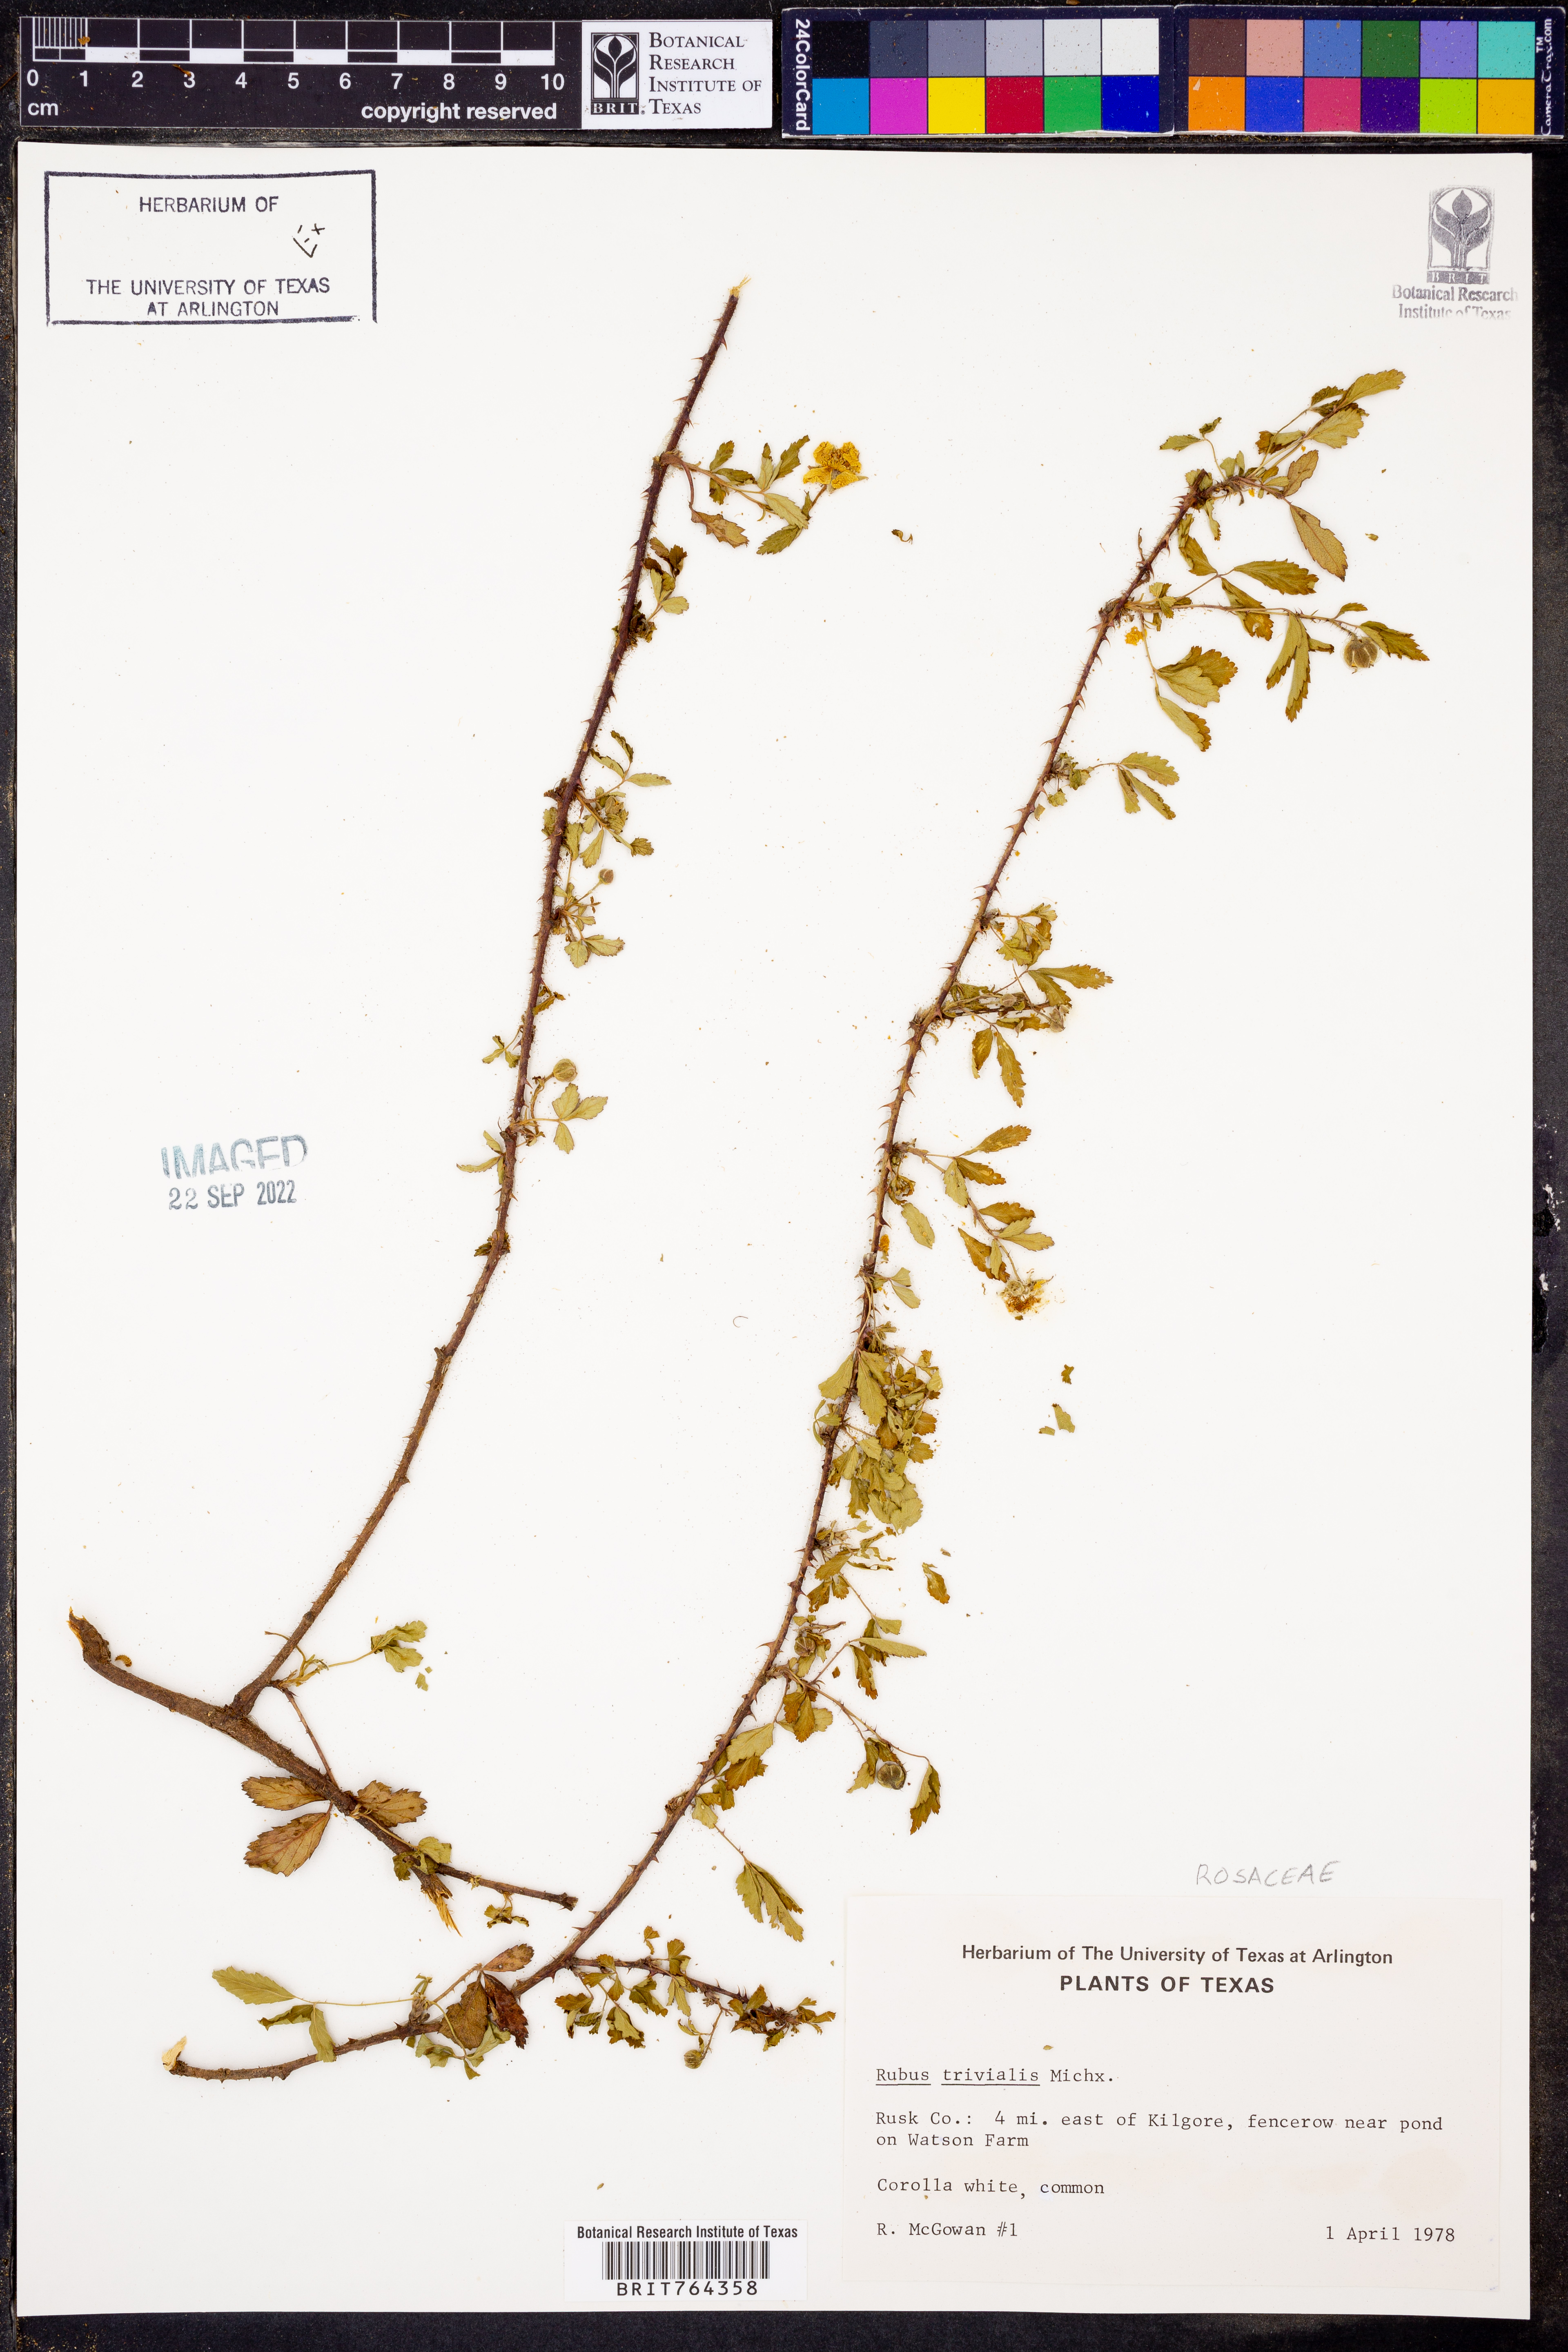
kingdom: Plantae
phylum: Tracheophyta
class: Magnoliopsida
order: Rosales
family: Rosaceae
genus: Rubus
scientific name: Rubus trivialis
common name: Southern dewberry
